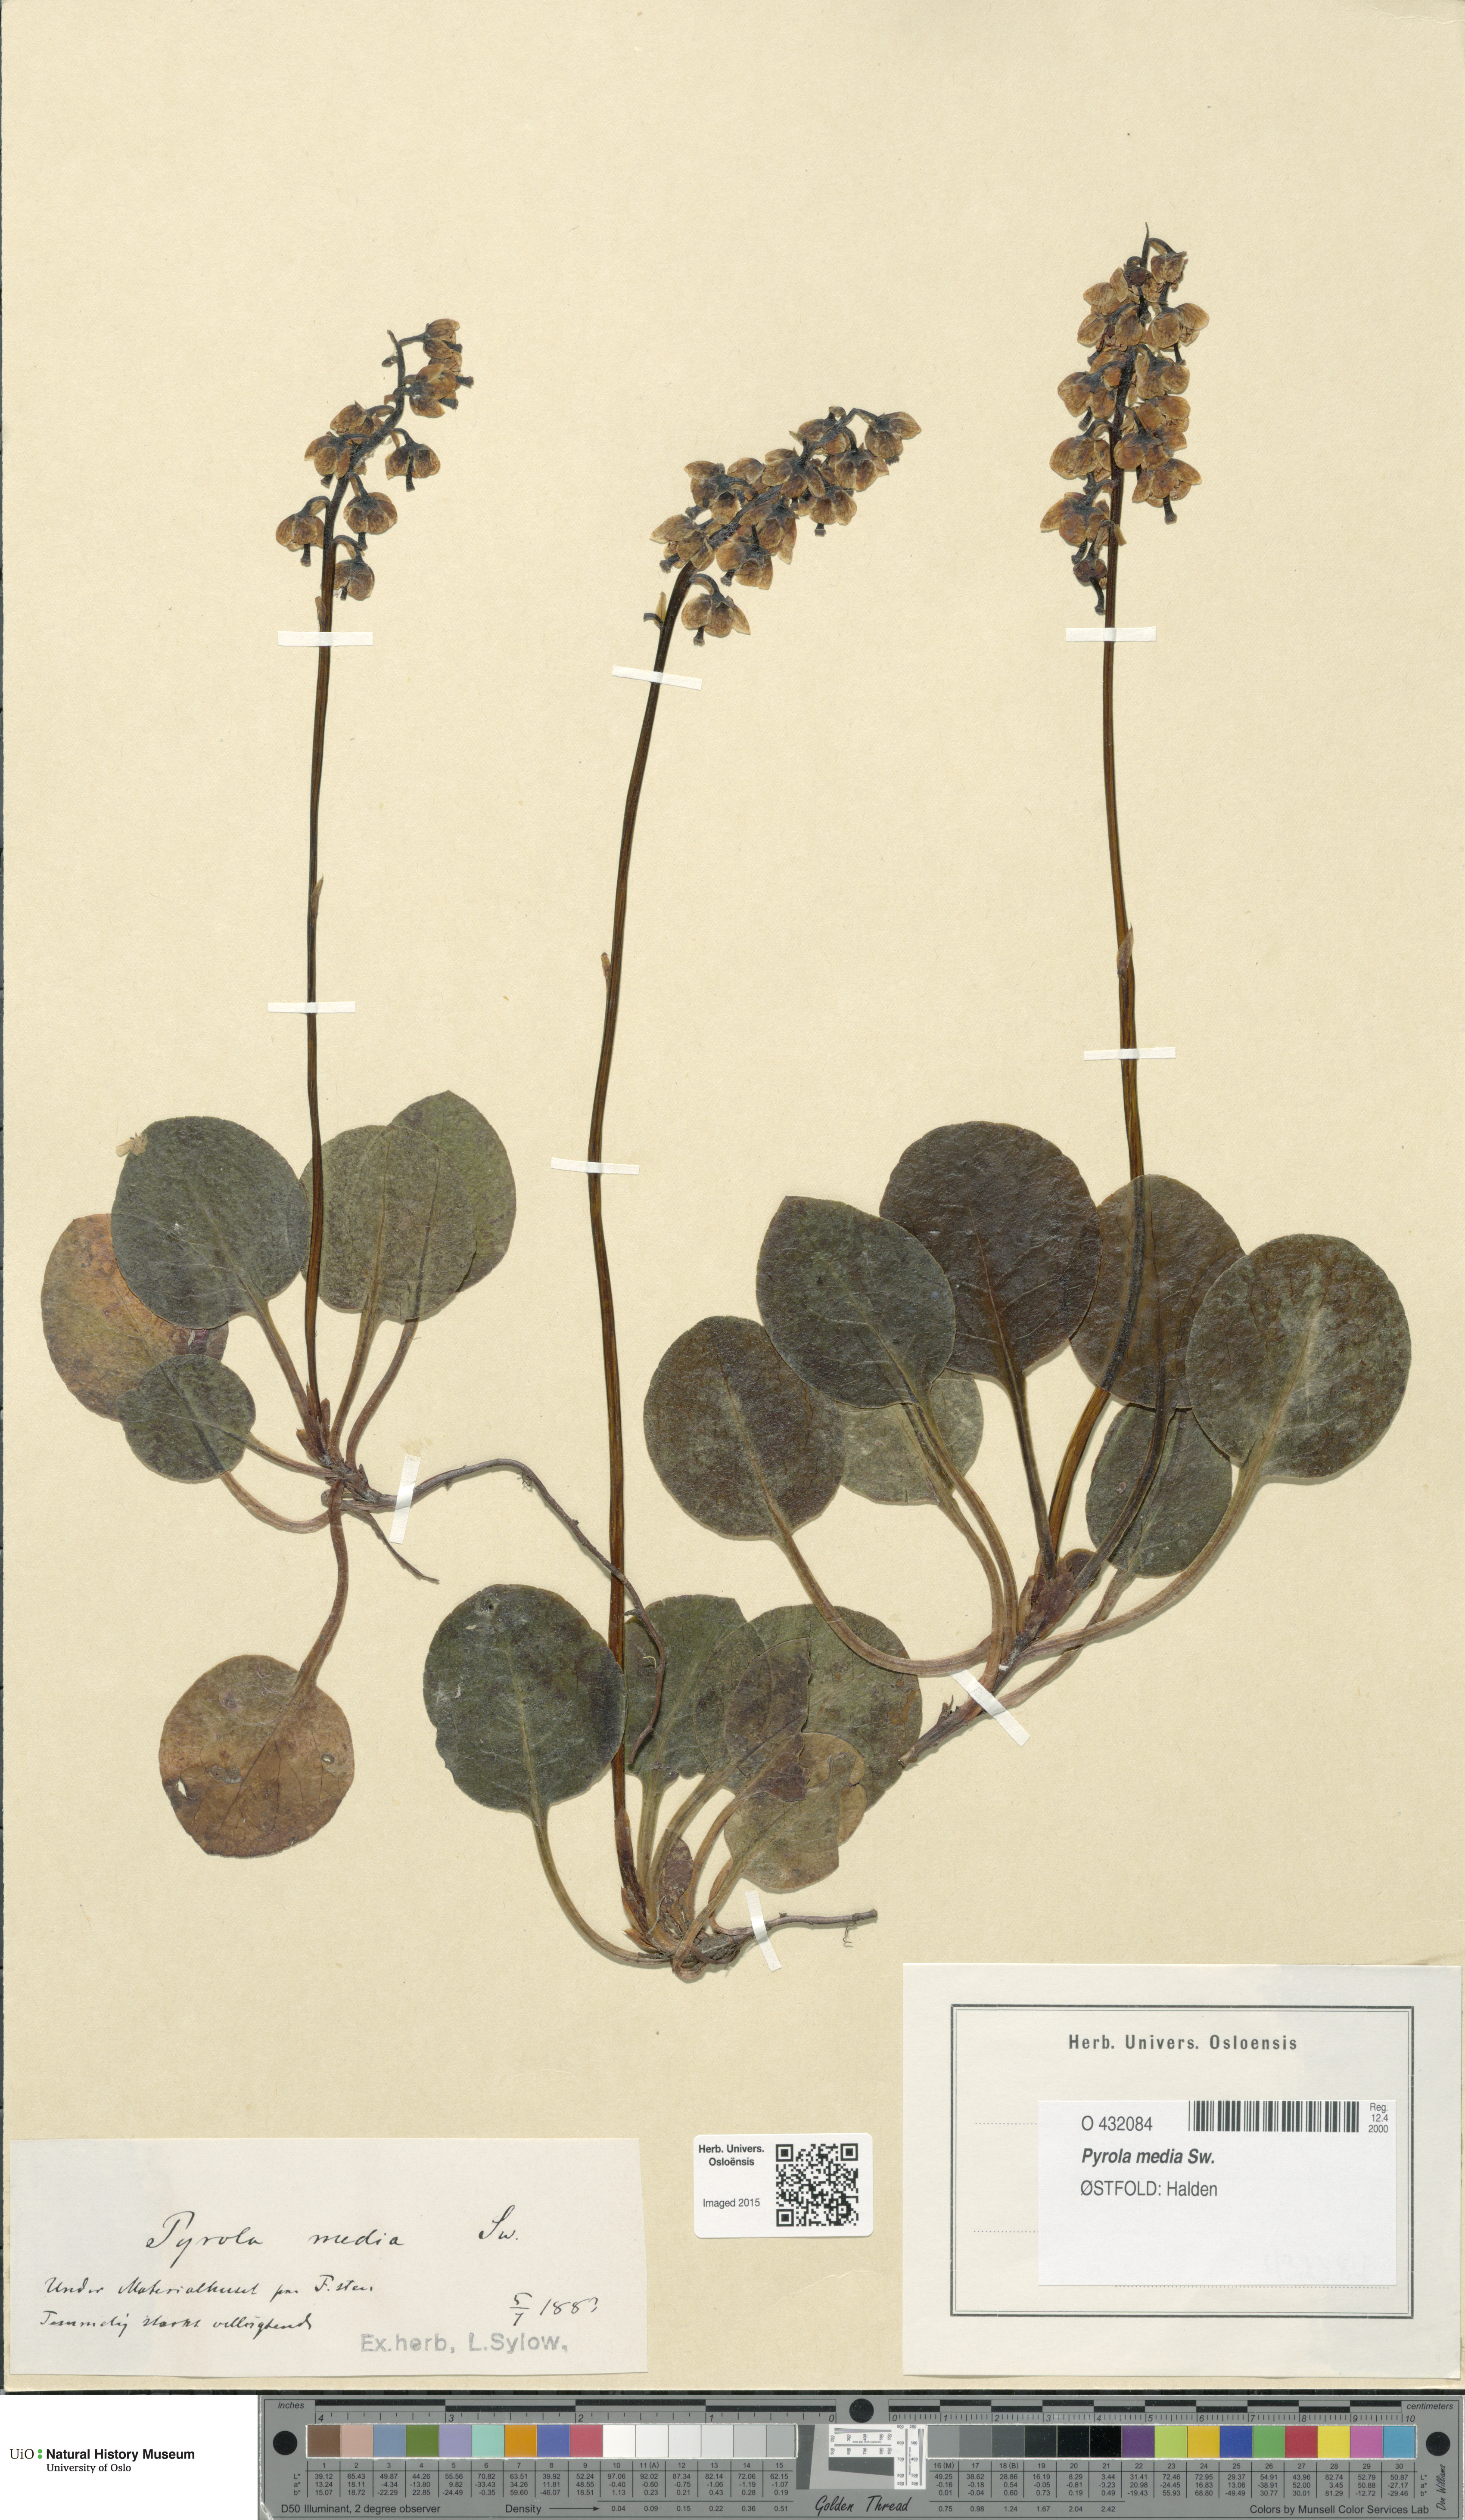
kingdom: Plantae
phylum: Tracheophyta
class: Magnoliopsida
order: Ericales
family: Ericaceae
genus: Pyrola
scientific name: Pyrola media
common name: Intermediate wintergreen
